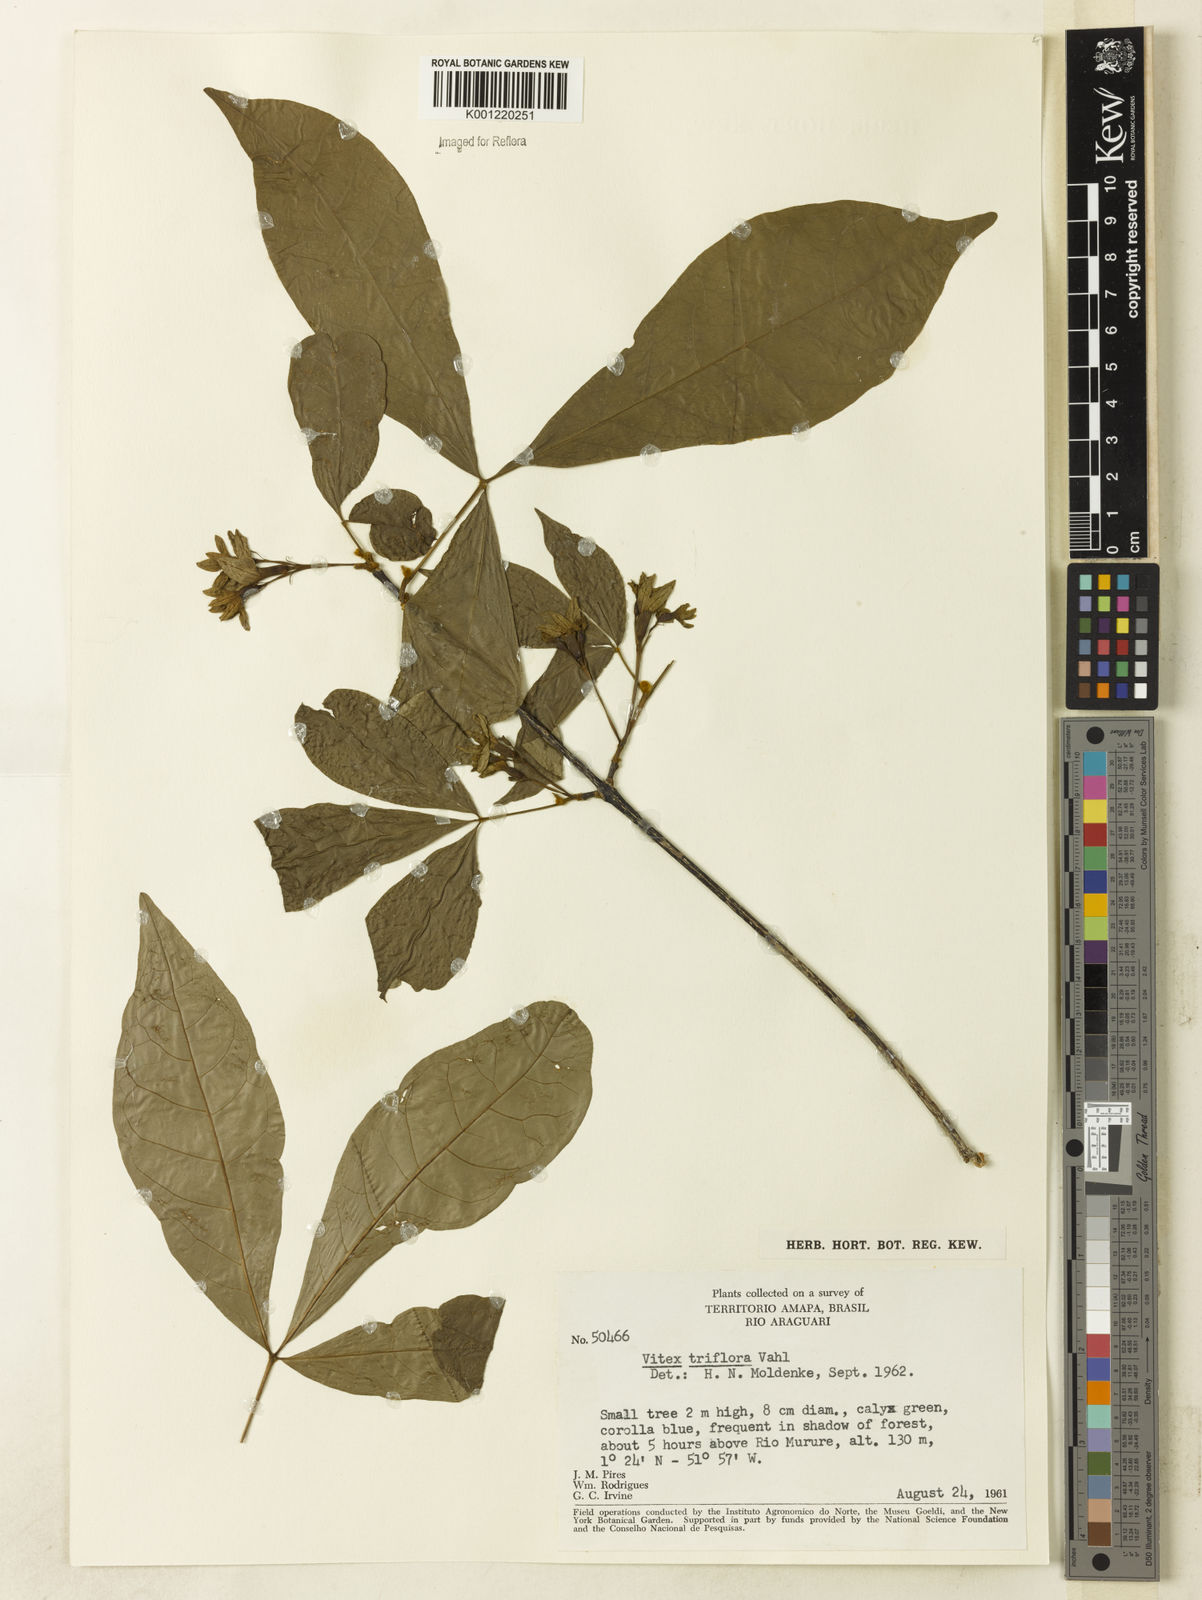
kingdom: Plantae
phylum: Tracheophyta
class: Magnoliopsida
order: Lamiales
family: Lamiaceae
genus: Vitex
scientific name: Vitex triflora
